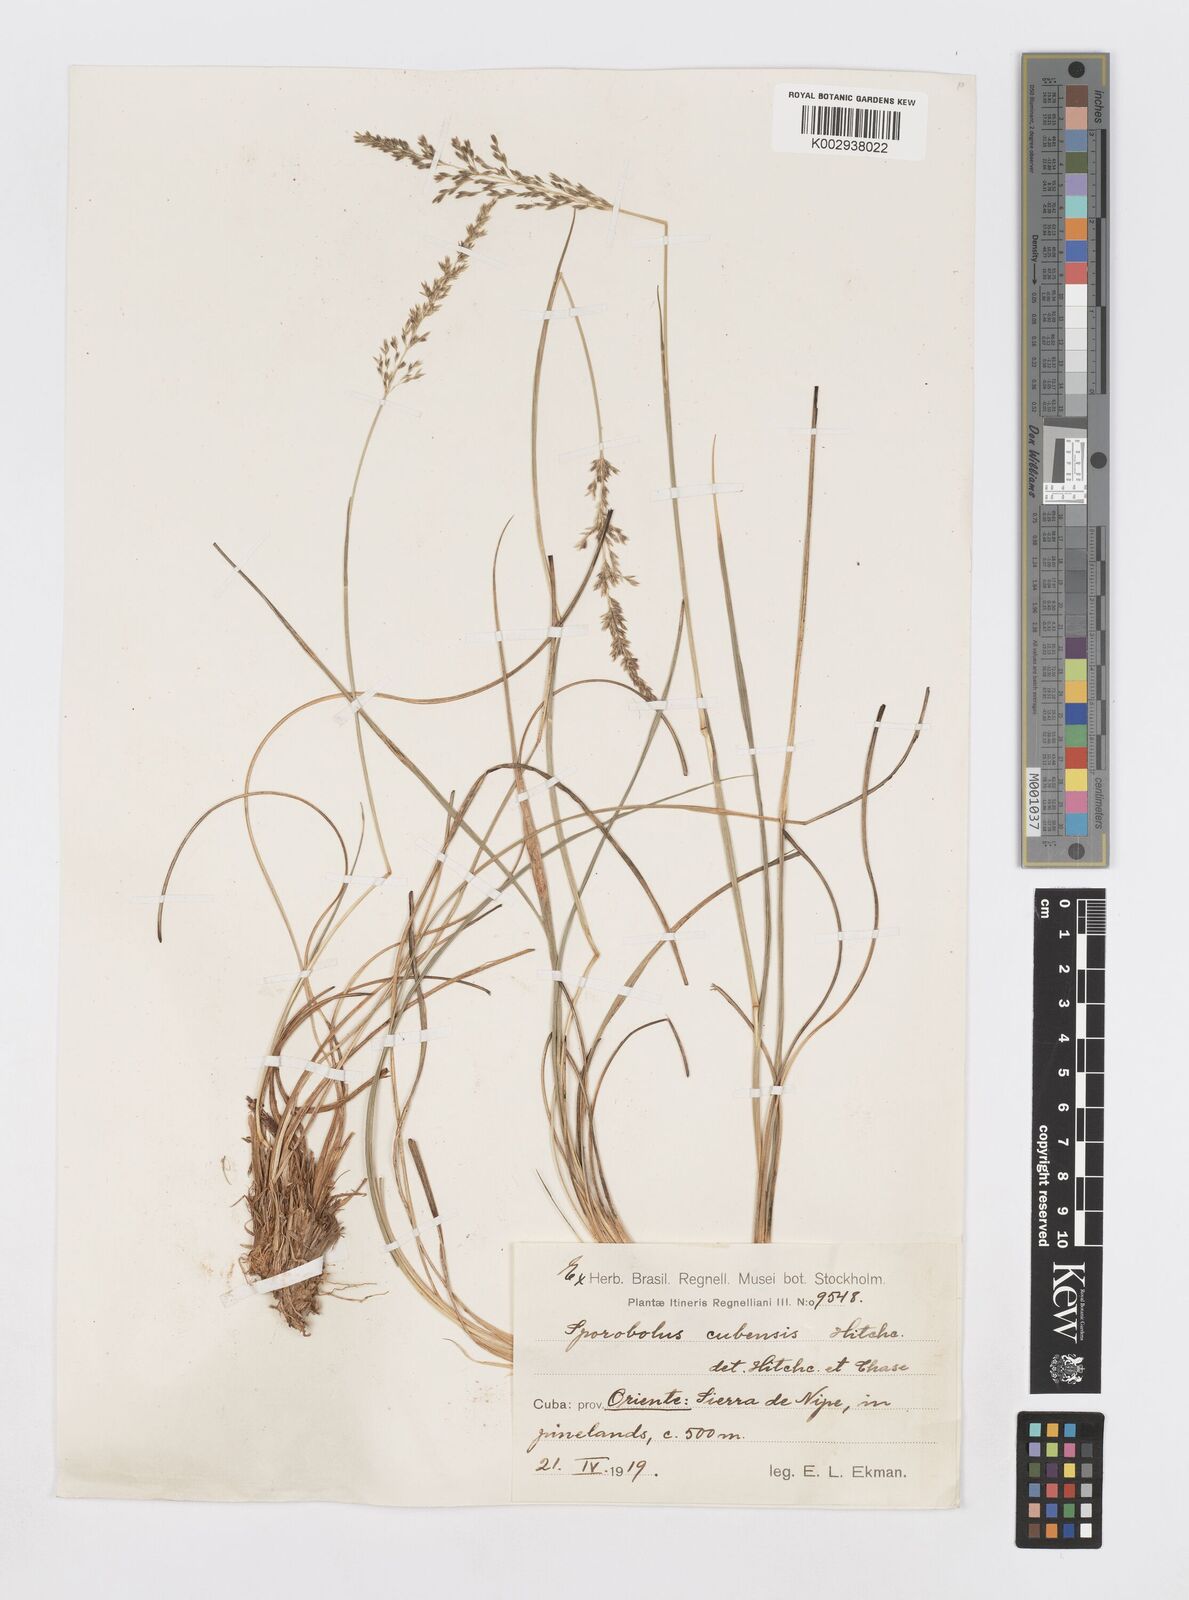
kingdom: Plantae
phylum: Tracheophyta
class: Liliopsida
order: Poales
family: Poaceae
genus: Sporobolus
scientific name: Sporobolus cubensis
